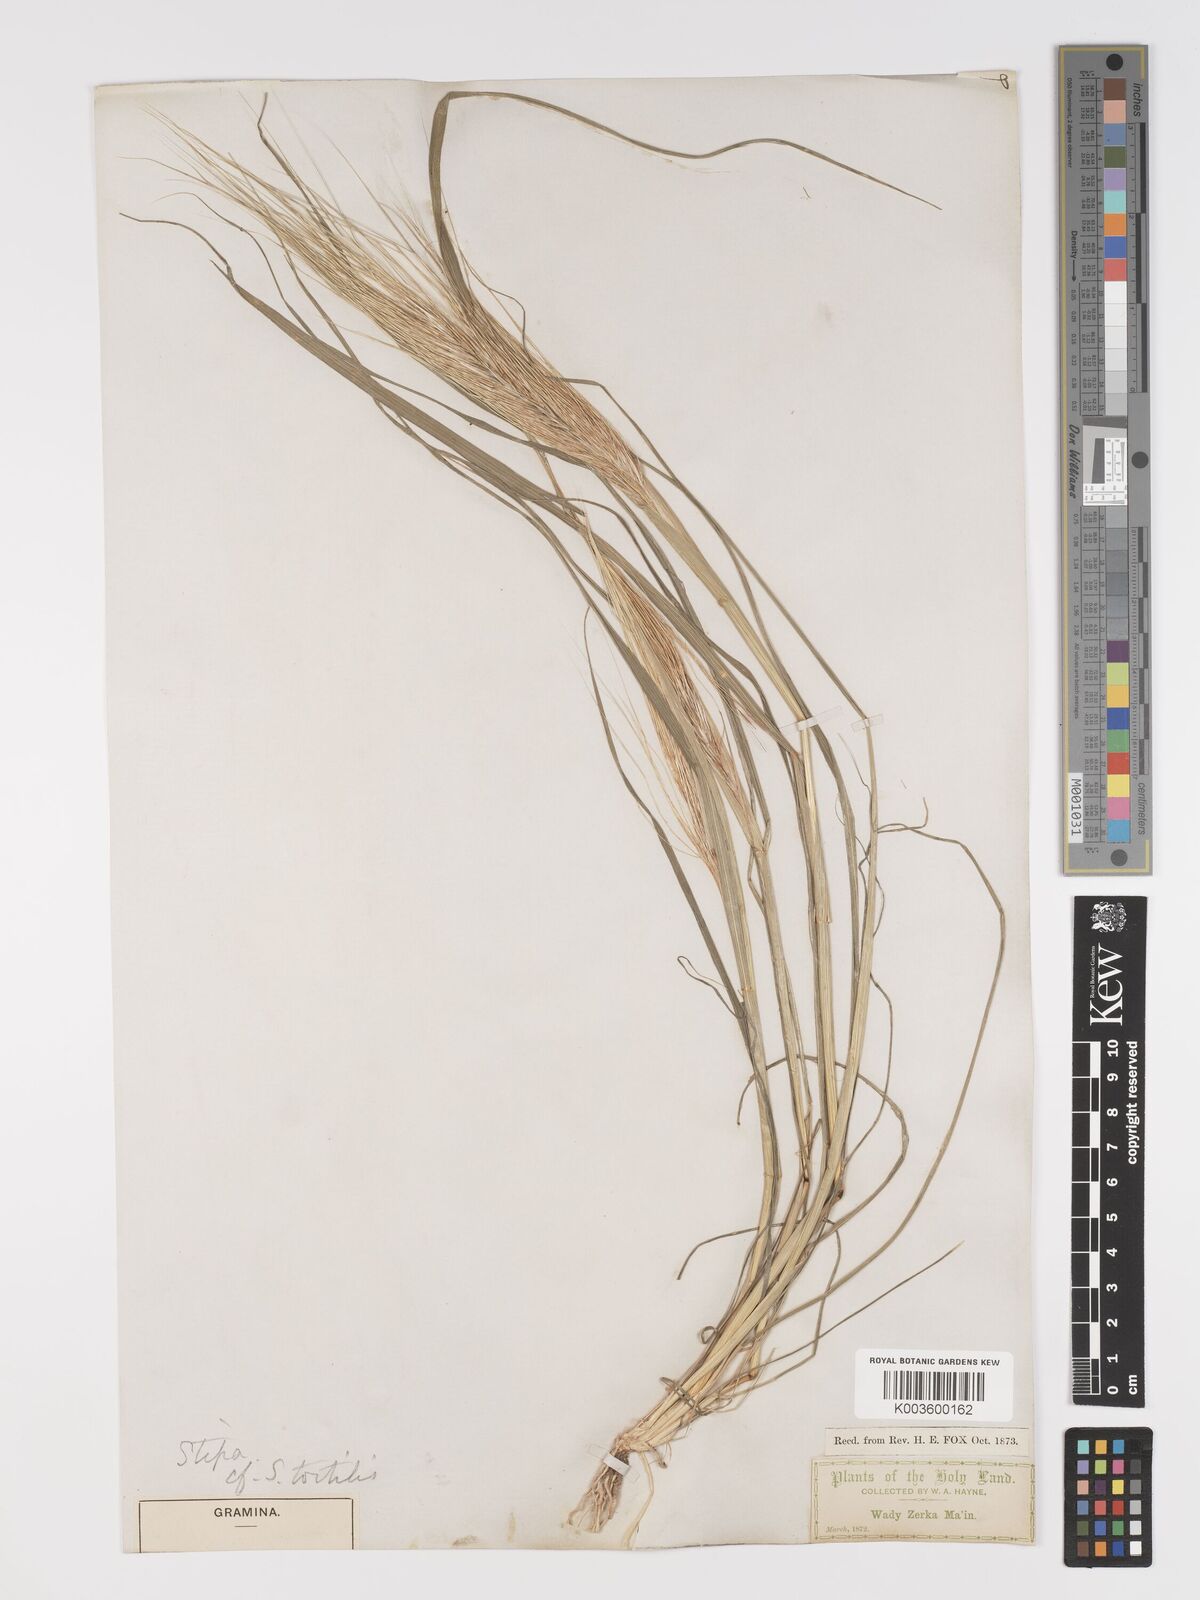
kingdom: Plantae
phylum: Tracheophyta
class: Liliopsida
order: Poales
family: Poaceae
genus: Stipellula
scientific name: Stipellula capensis
